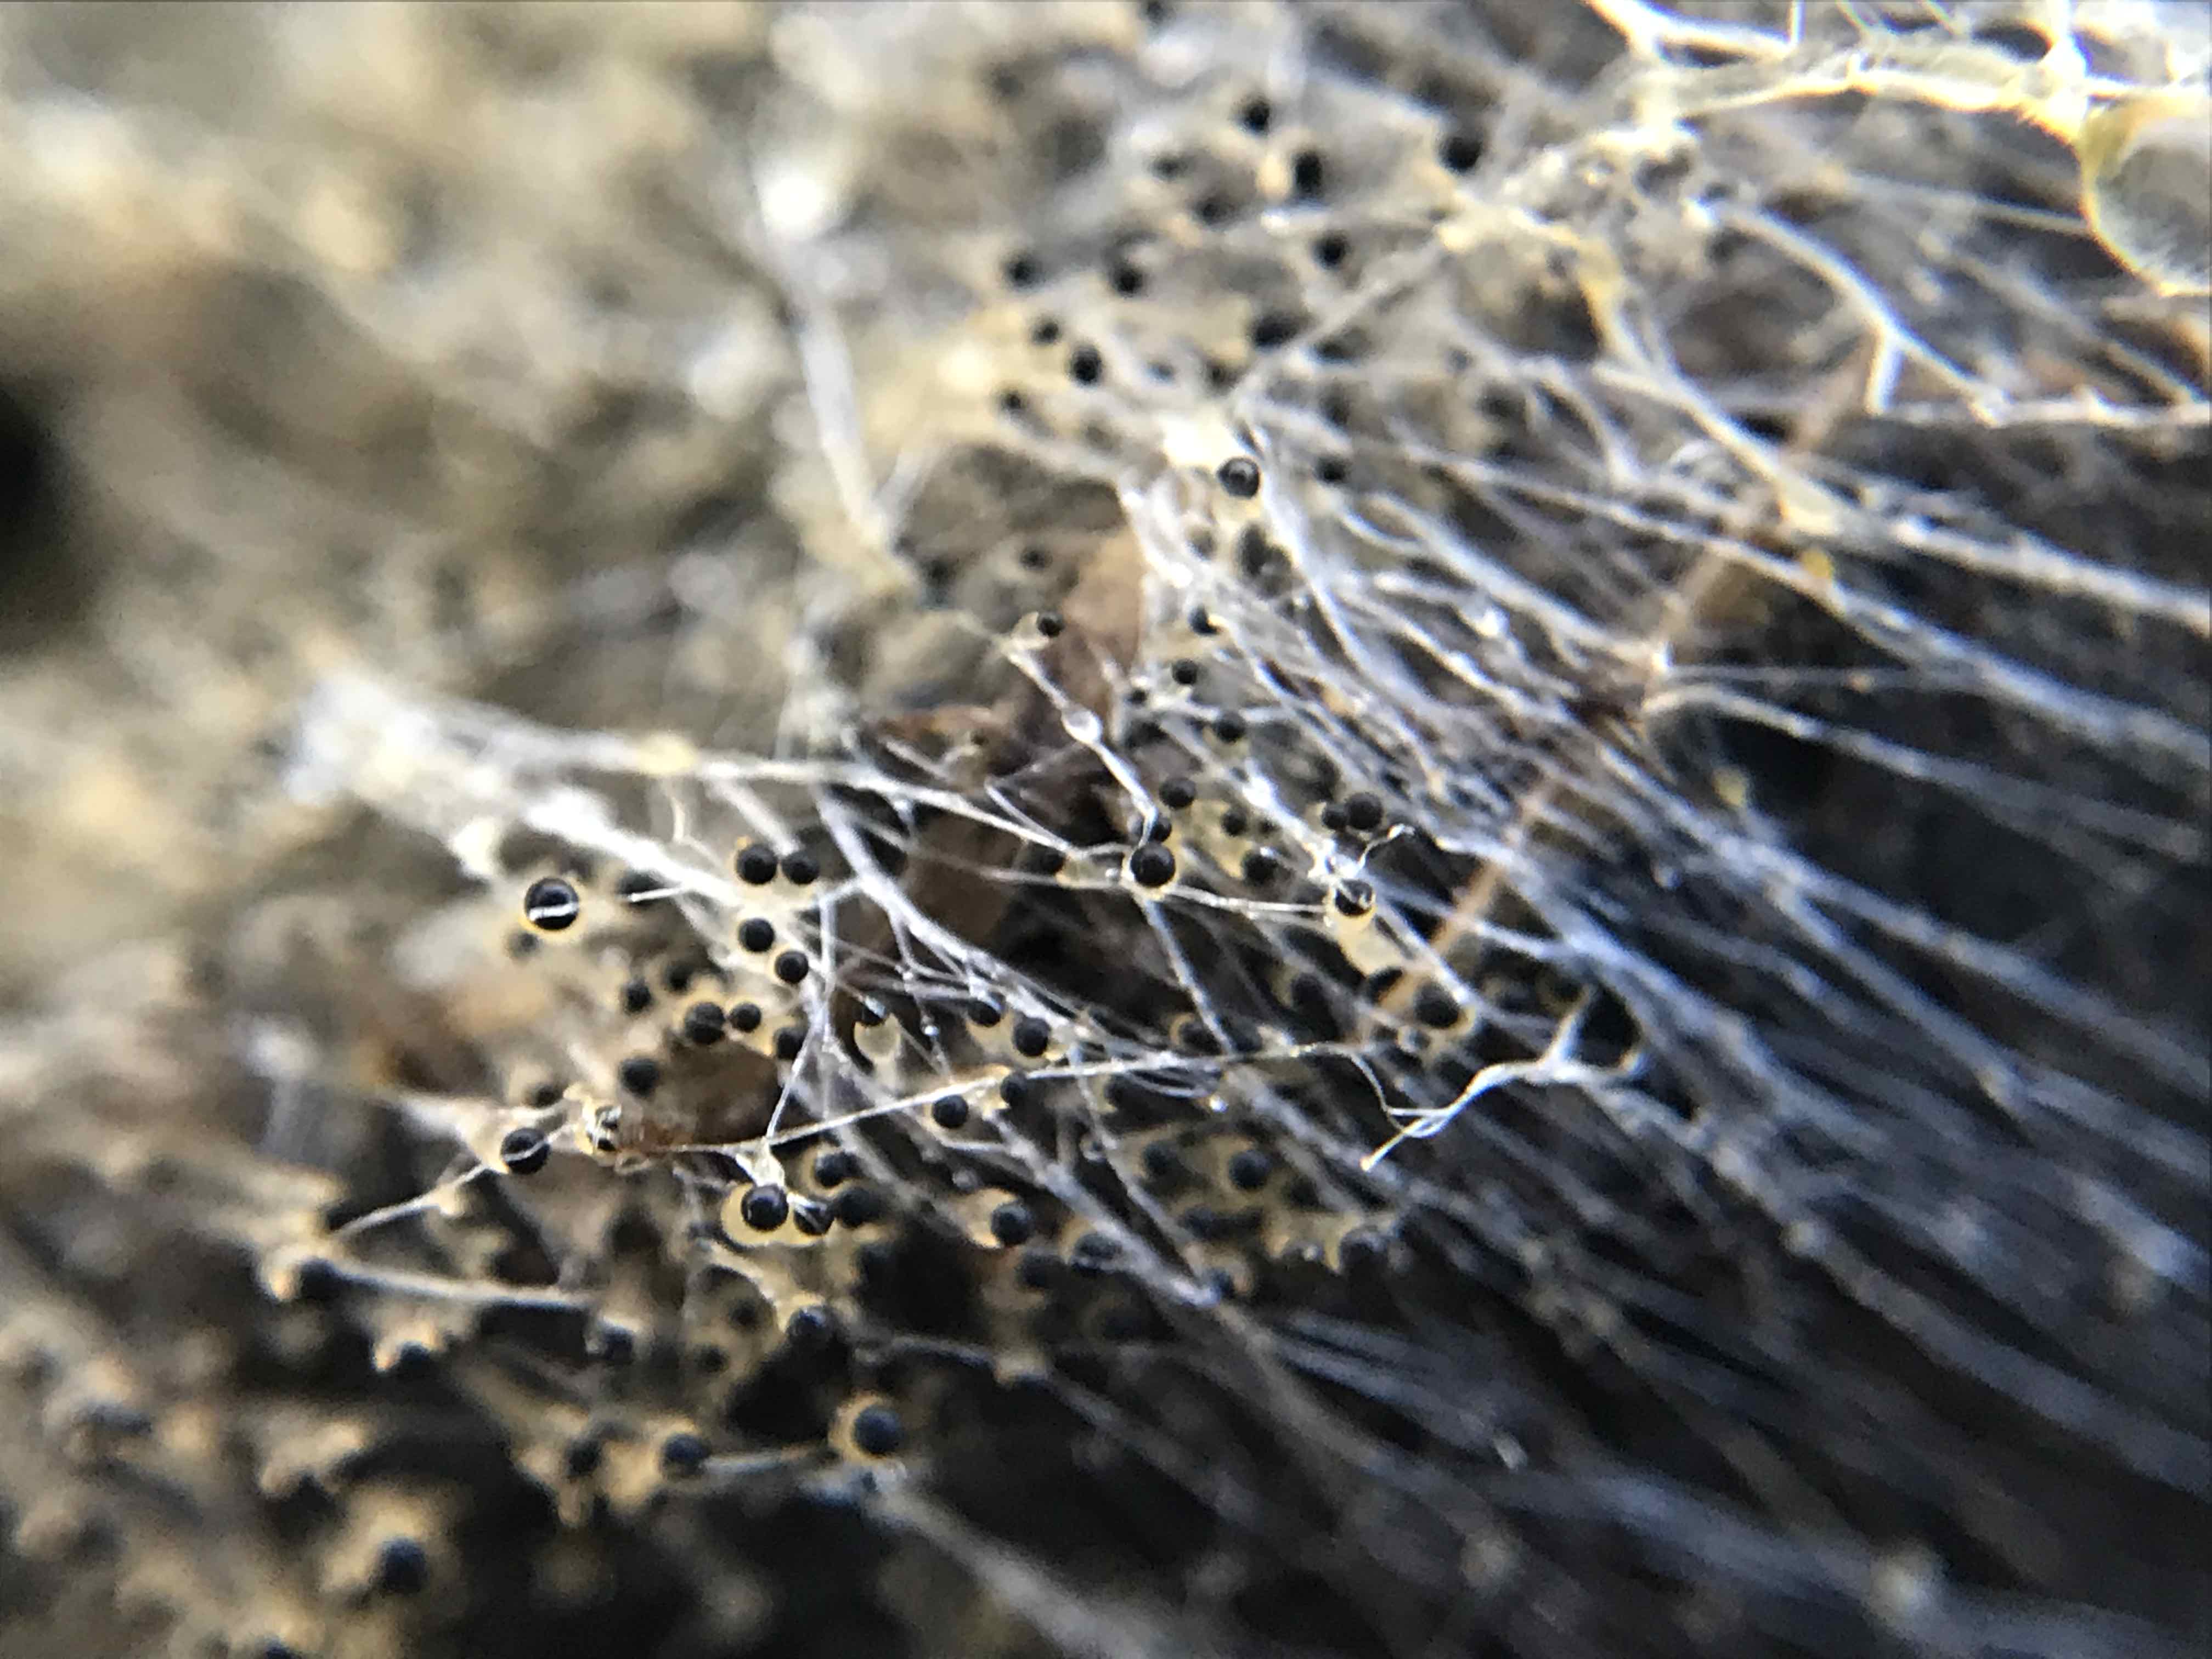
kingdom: Fungi
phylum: Mucoromycota
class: Mucoromycetes
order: Mucorales
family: Pilobolaceae
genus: Pilobolus
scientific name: Pilobolus
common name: boldkaster
